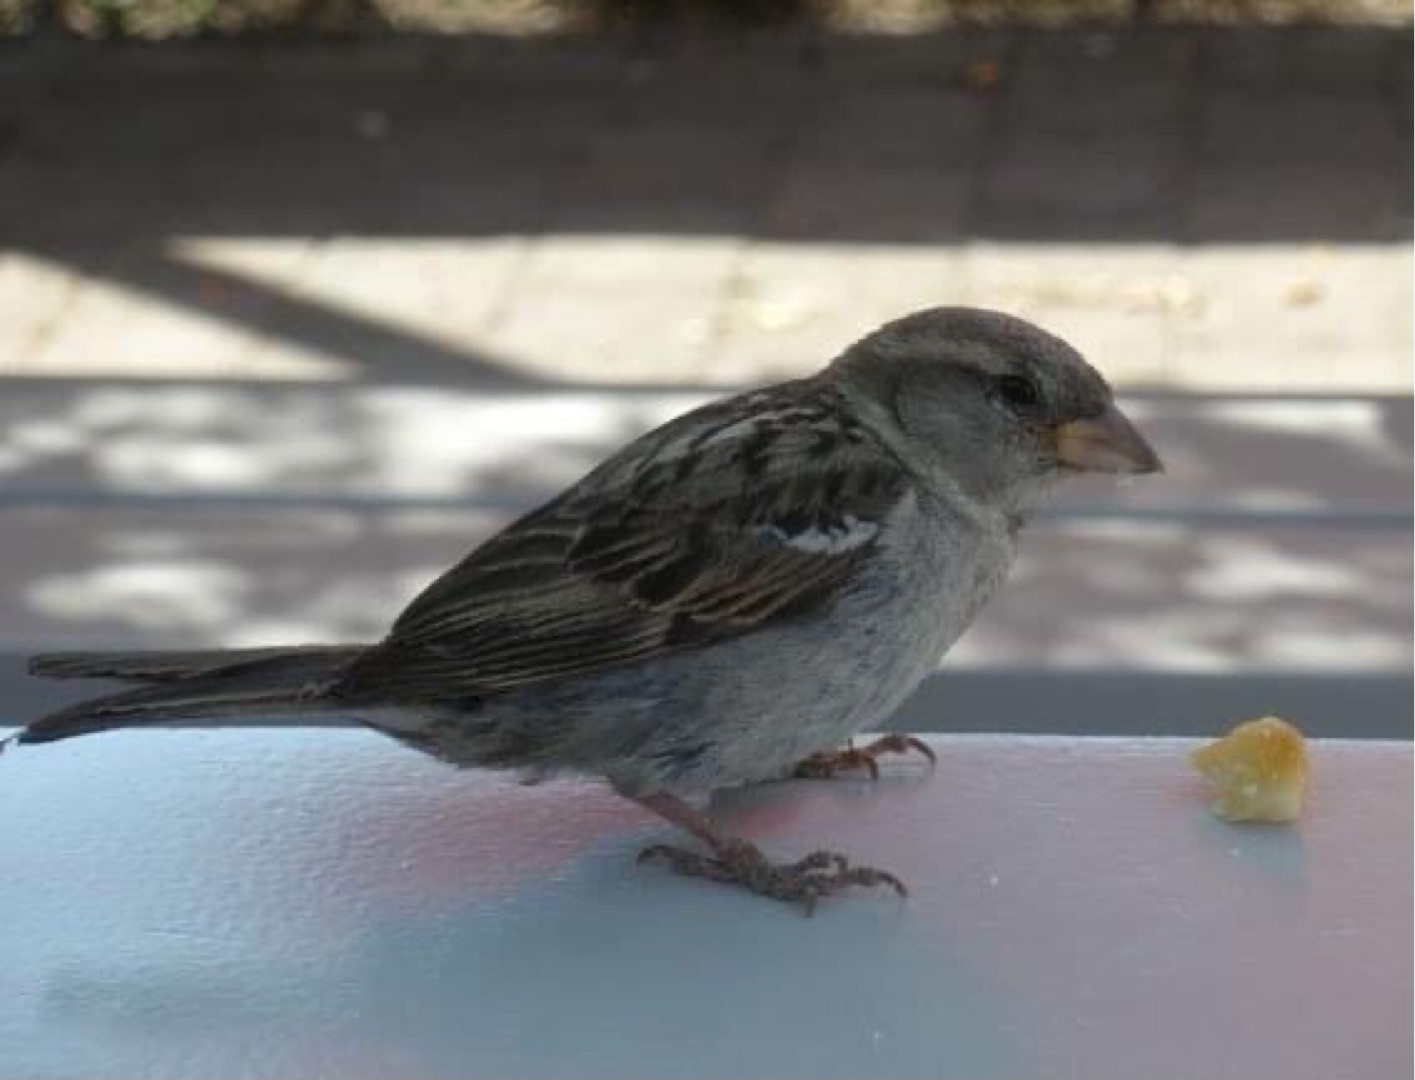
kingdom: Animalia
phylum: Chordata
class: Aves
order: Passeriformes
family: Passeridae
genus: Passer
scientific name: Passer domesticus
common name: Gråspurv
